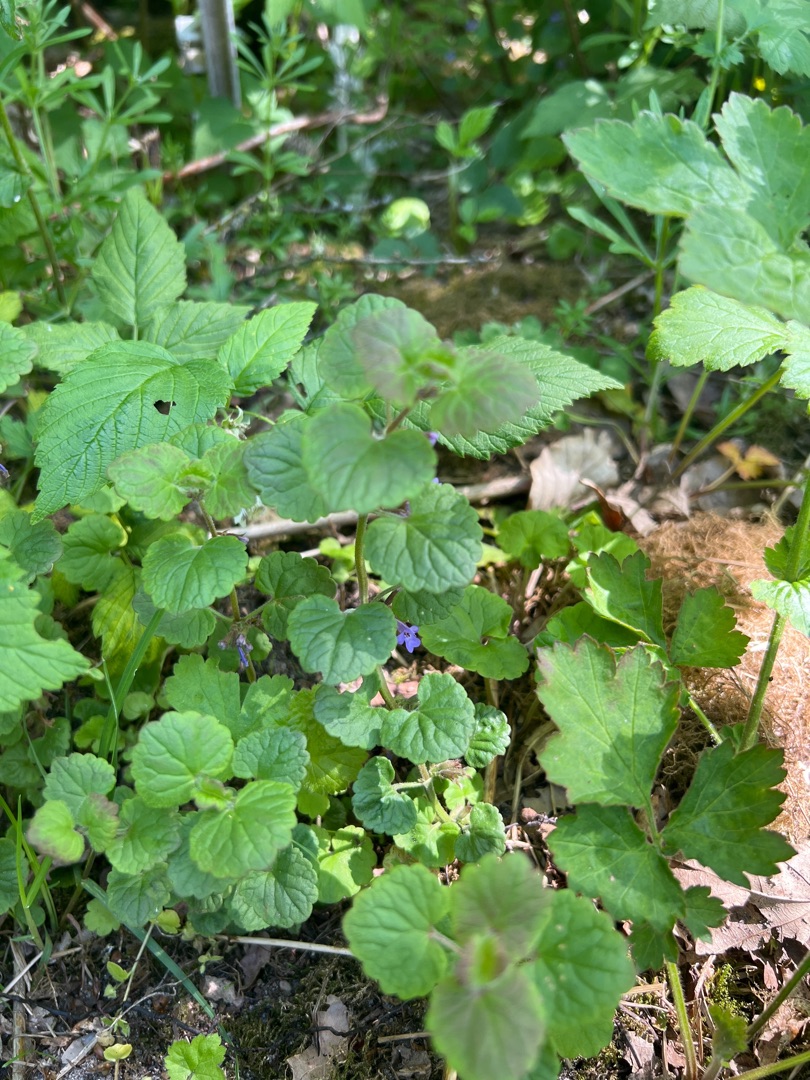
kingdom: Plantae
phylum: Tracheophyta
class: Magnoliopsida
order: Lamiales
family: Lamiaceae
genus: Glechoma
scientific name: Glechoma hederacea
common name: Korsknap
